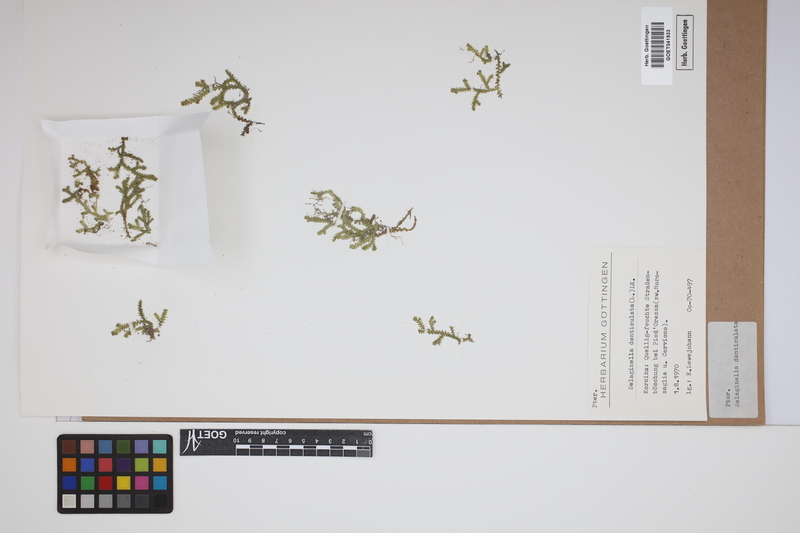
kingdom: Plantae
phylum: Tracheophyta
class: Lycopodiopsida
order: Selaginellales
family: Selaginellaceae
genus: Selaginella
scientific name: Selaginella denticulata
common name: Toothed-leaved clubmoss
